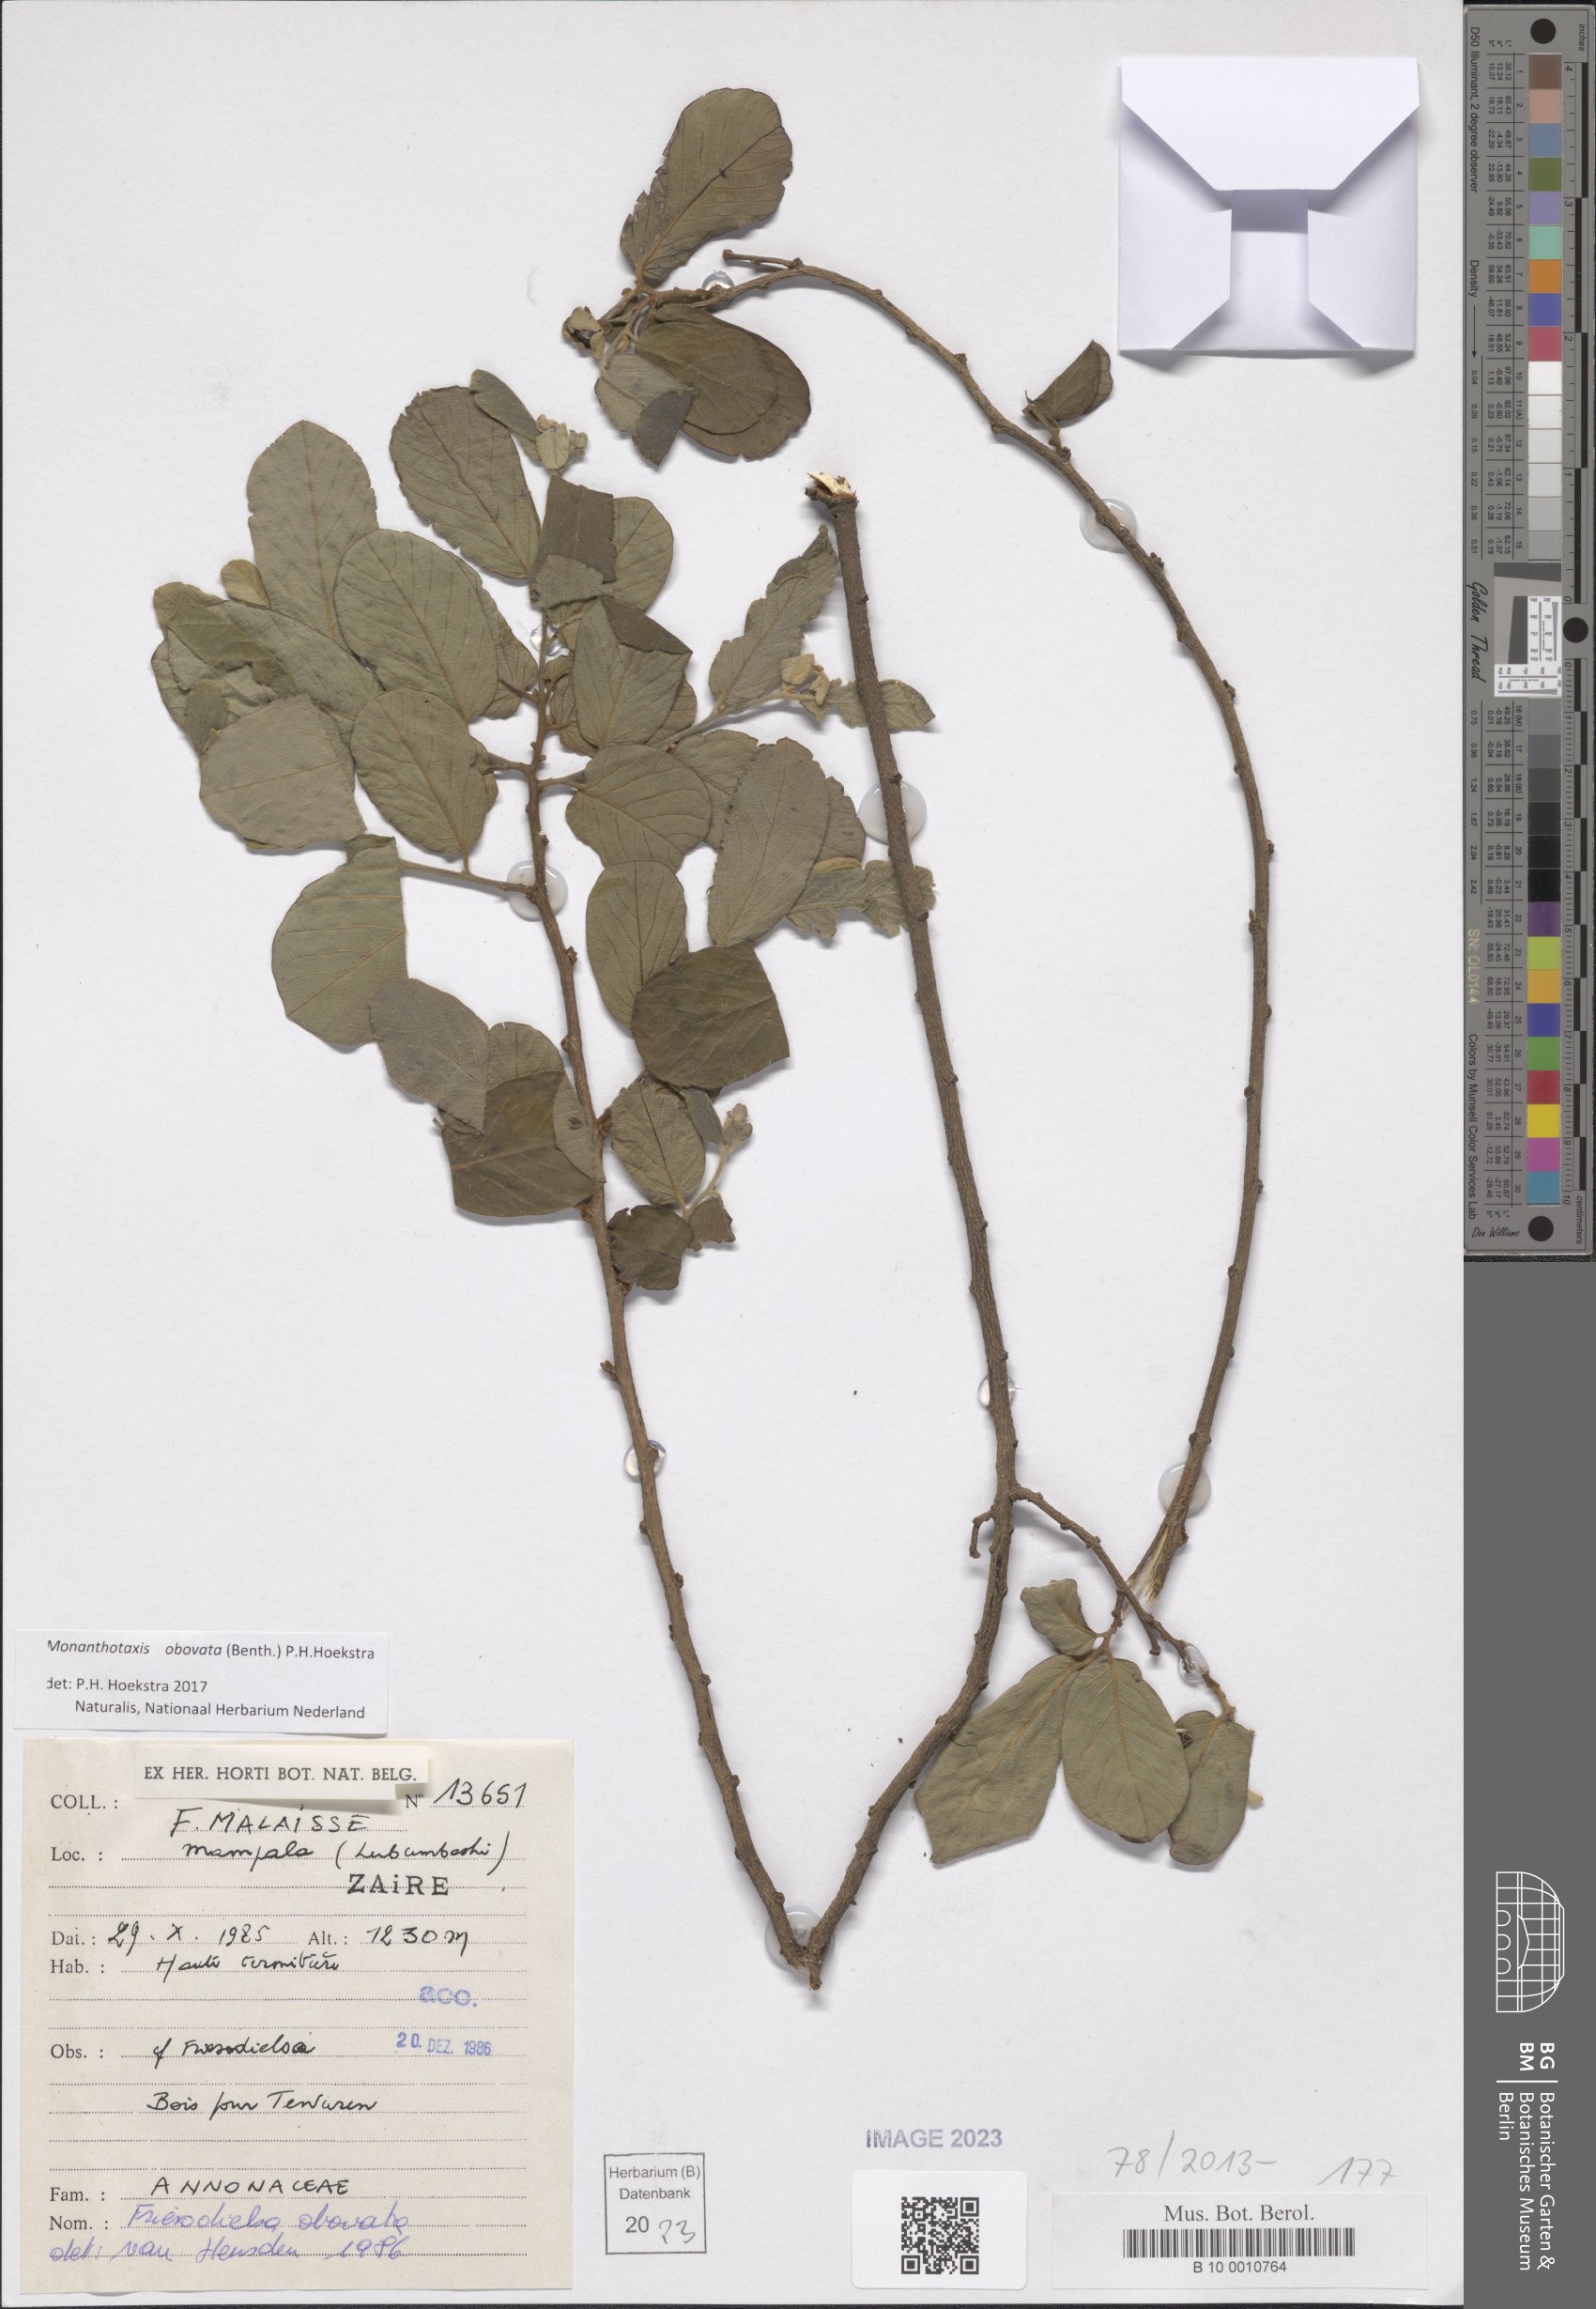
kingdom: Plantae
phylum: Tracheophyta
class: Magnoliopsida
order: Magnoliales
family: Annonaceae
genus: Friesodielsia
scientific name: Friesodielsia obovata
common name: Monkey fingers
